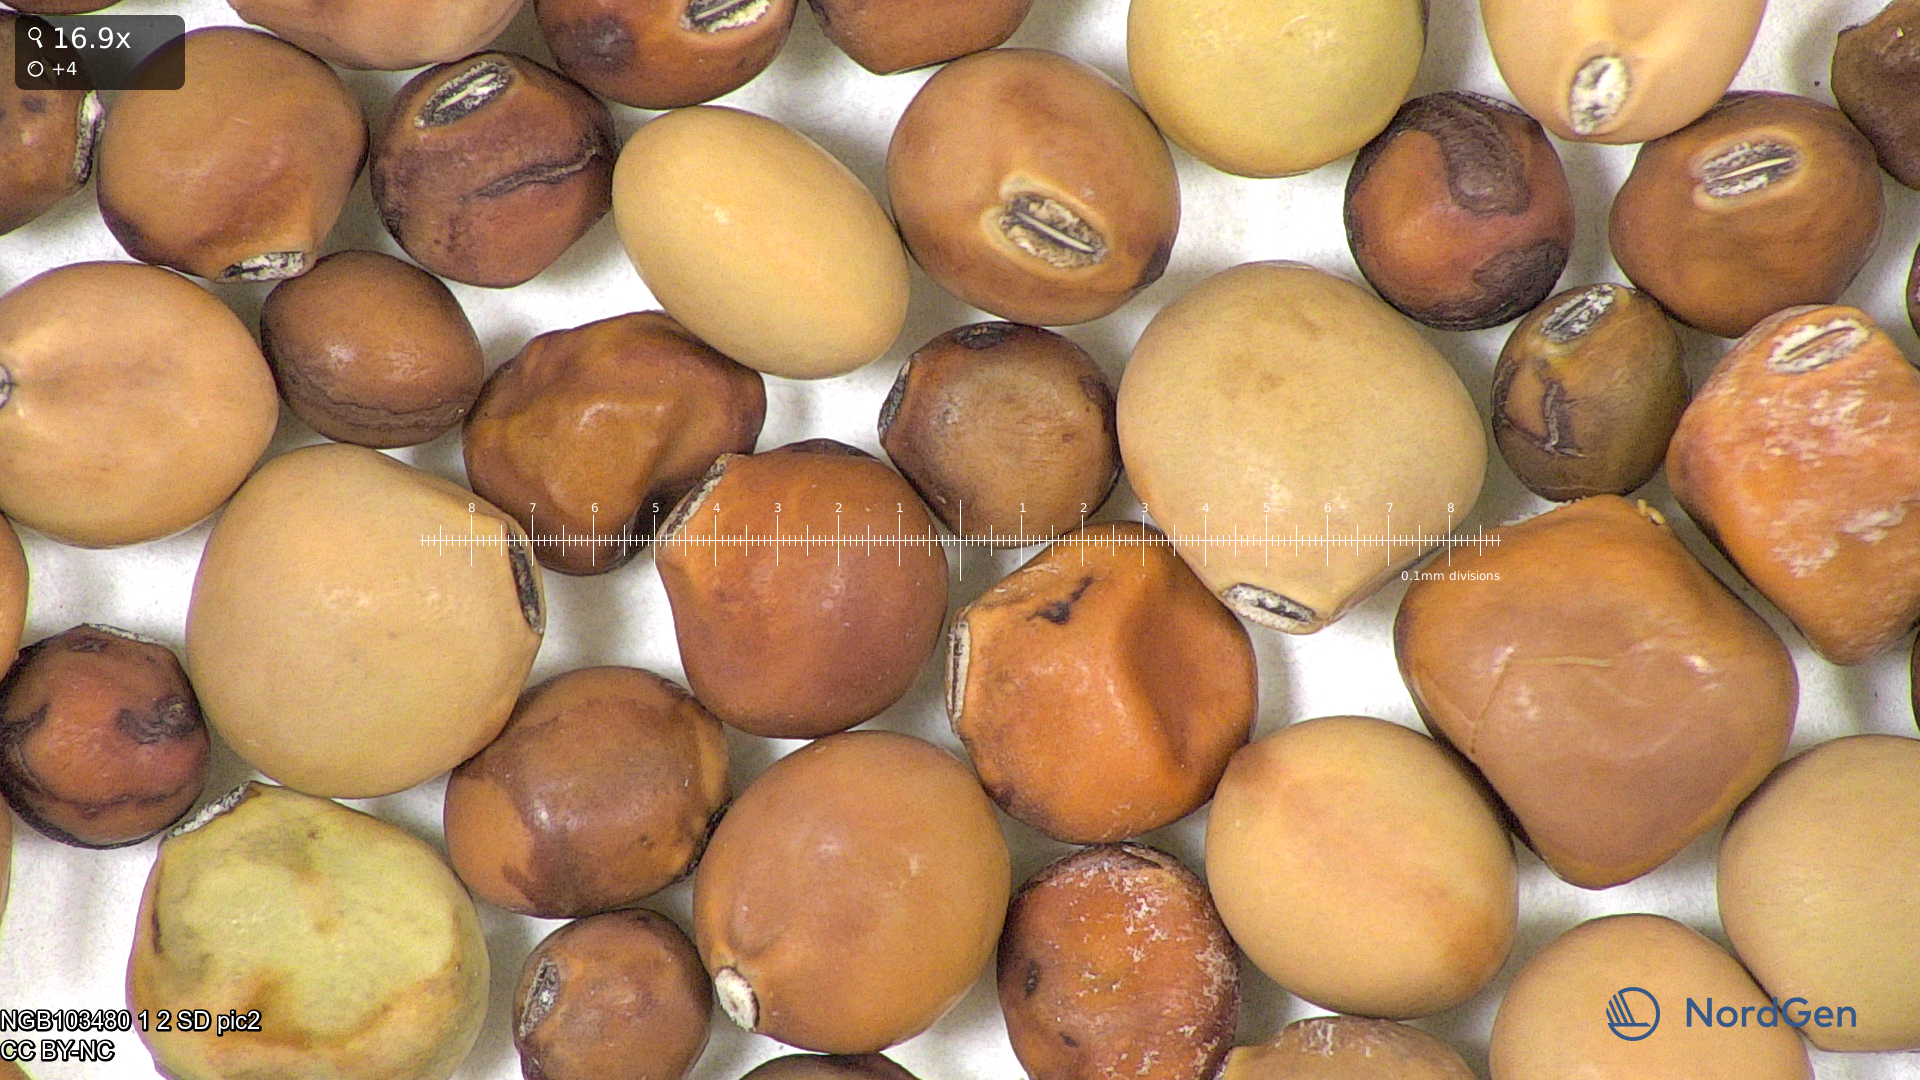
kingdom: Plantae
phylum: Tracheophyta
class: Magnoliopsida
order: Fabales
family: Fabaceae
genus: Lathyrus
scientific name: Lathyrus oleraceus
